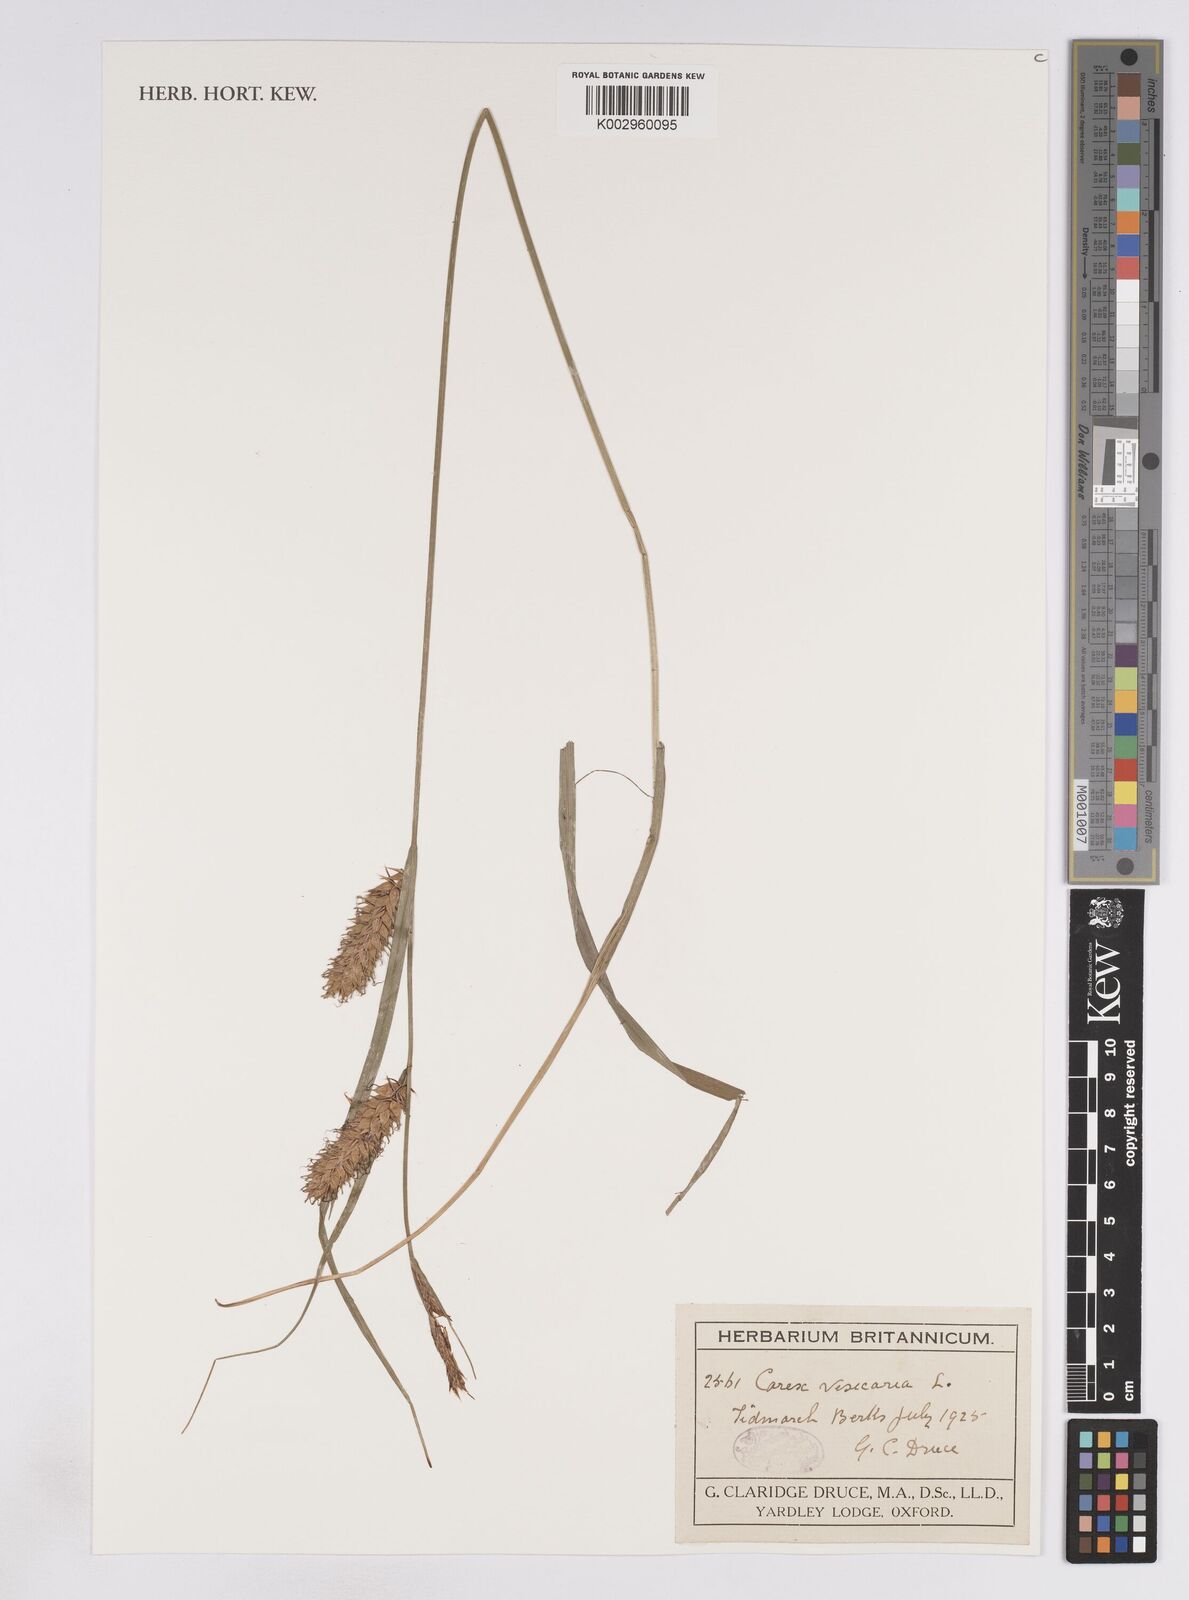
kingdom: Plantae
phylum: Tracheophyta
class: Liliopsida
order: Poales
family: Cyperaceae
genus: Carex
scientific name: Carex vesicaria
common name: Bladder-sedge
